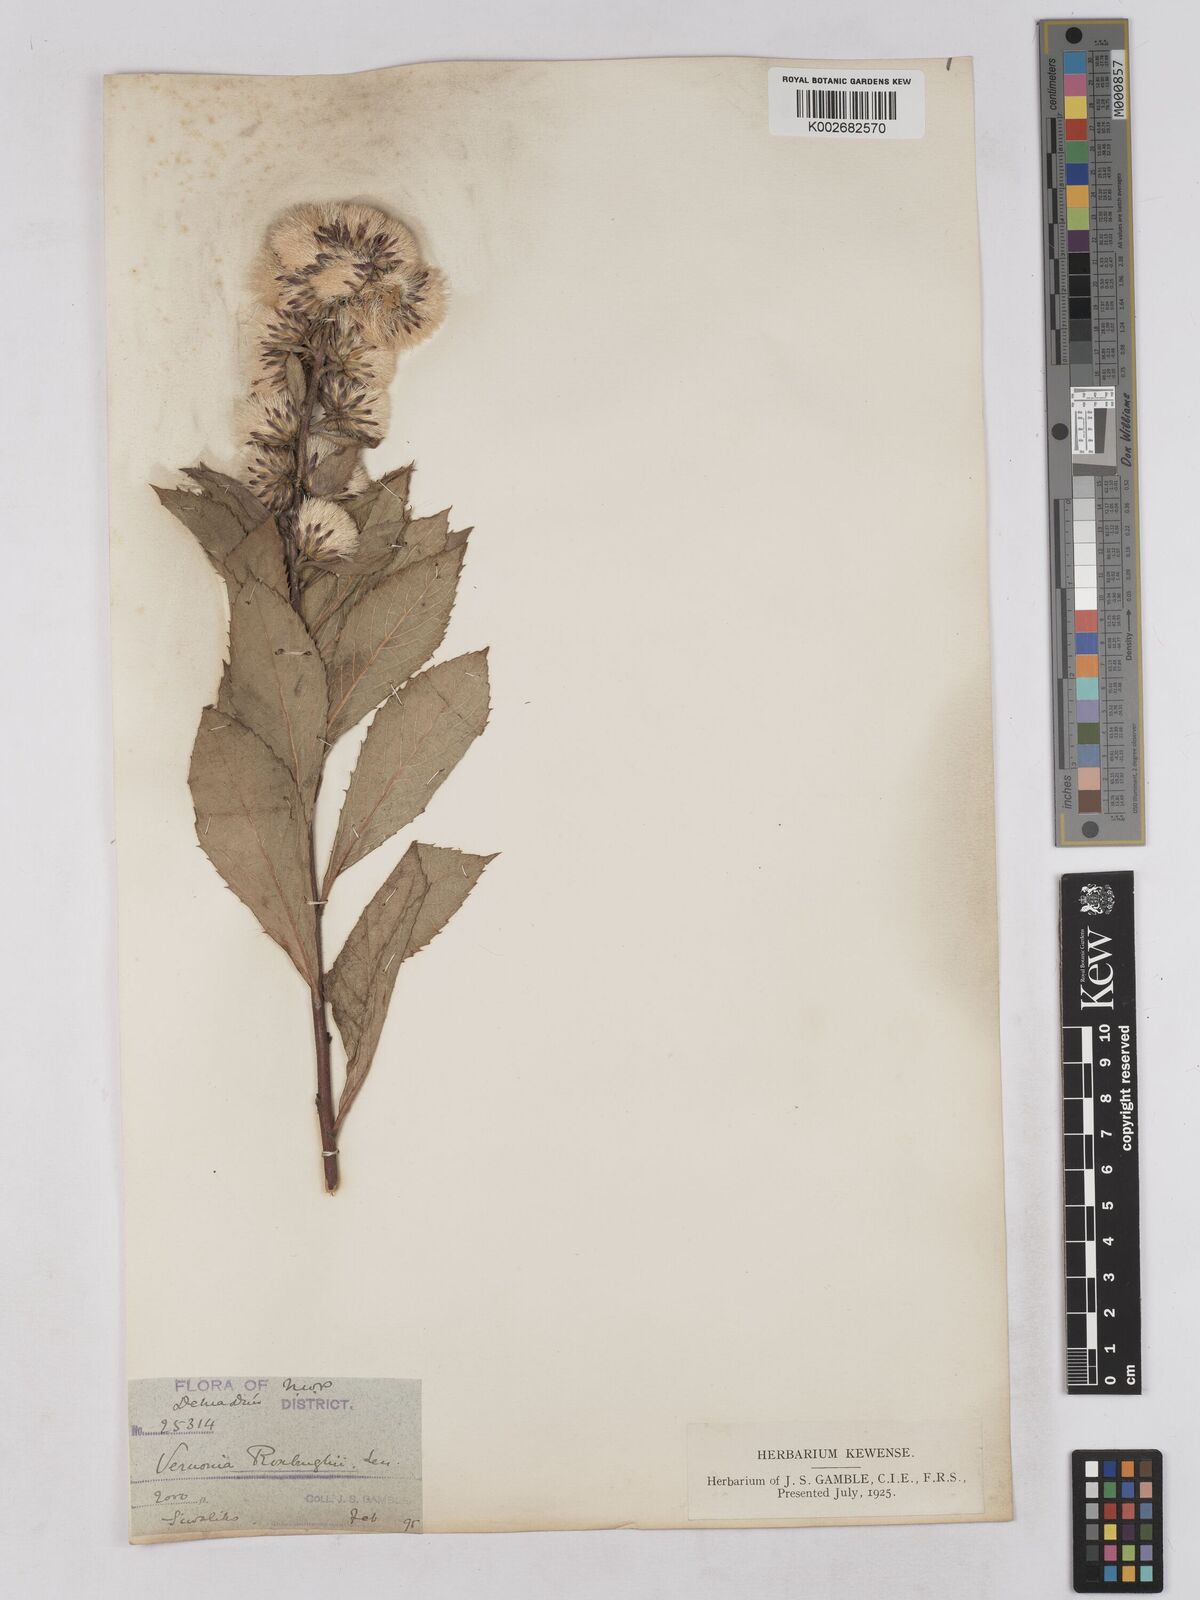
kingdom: Plantae
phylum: Tracheophyta
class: Magnoliopsida
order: Asterales
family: Asteraceae
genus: Acilepis
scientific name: Acilepis aspera
